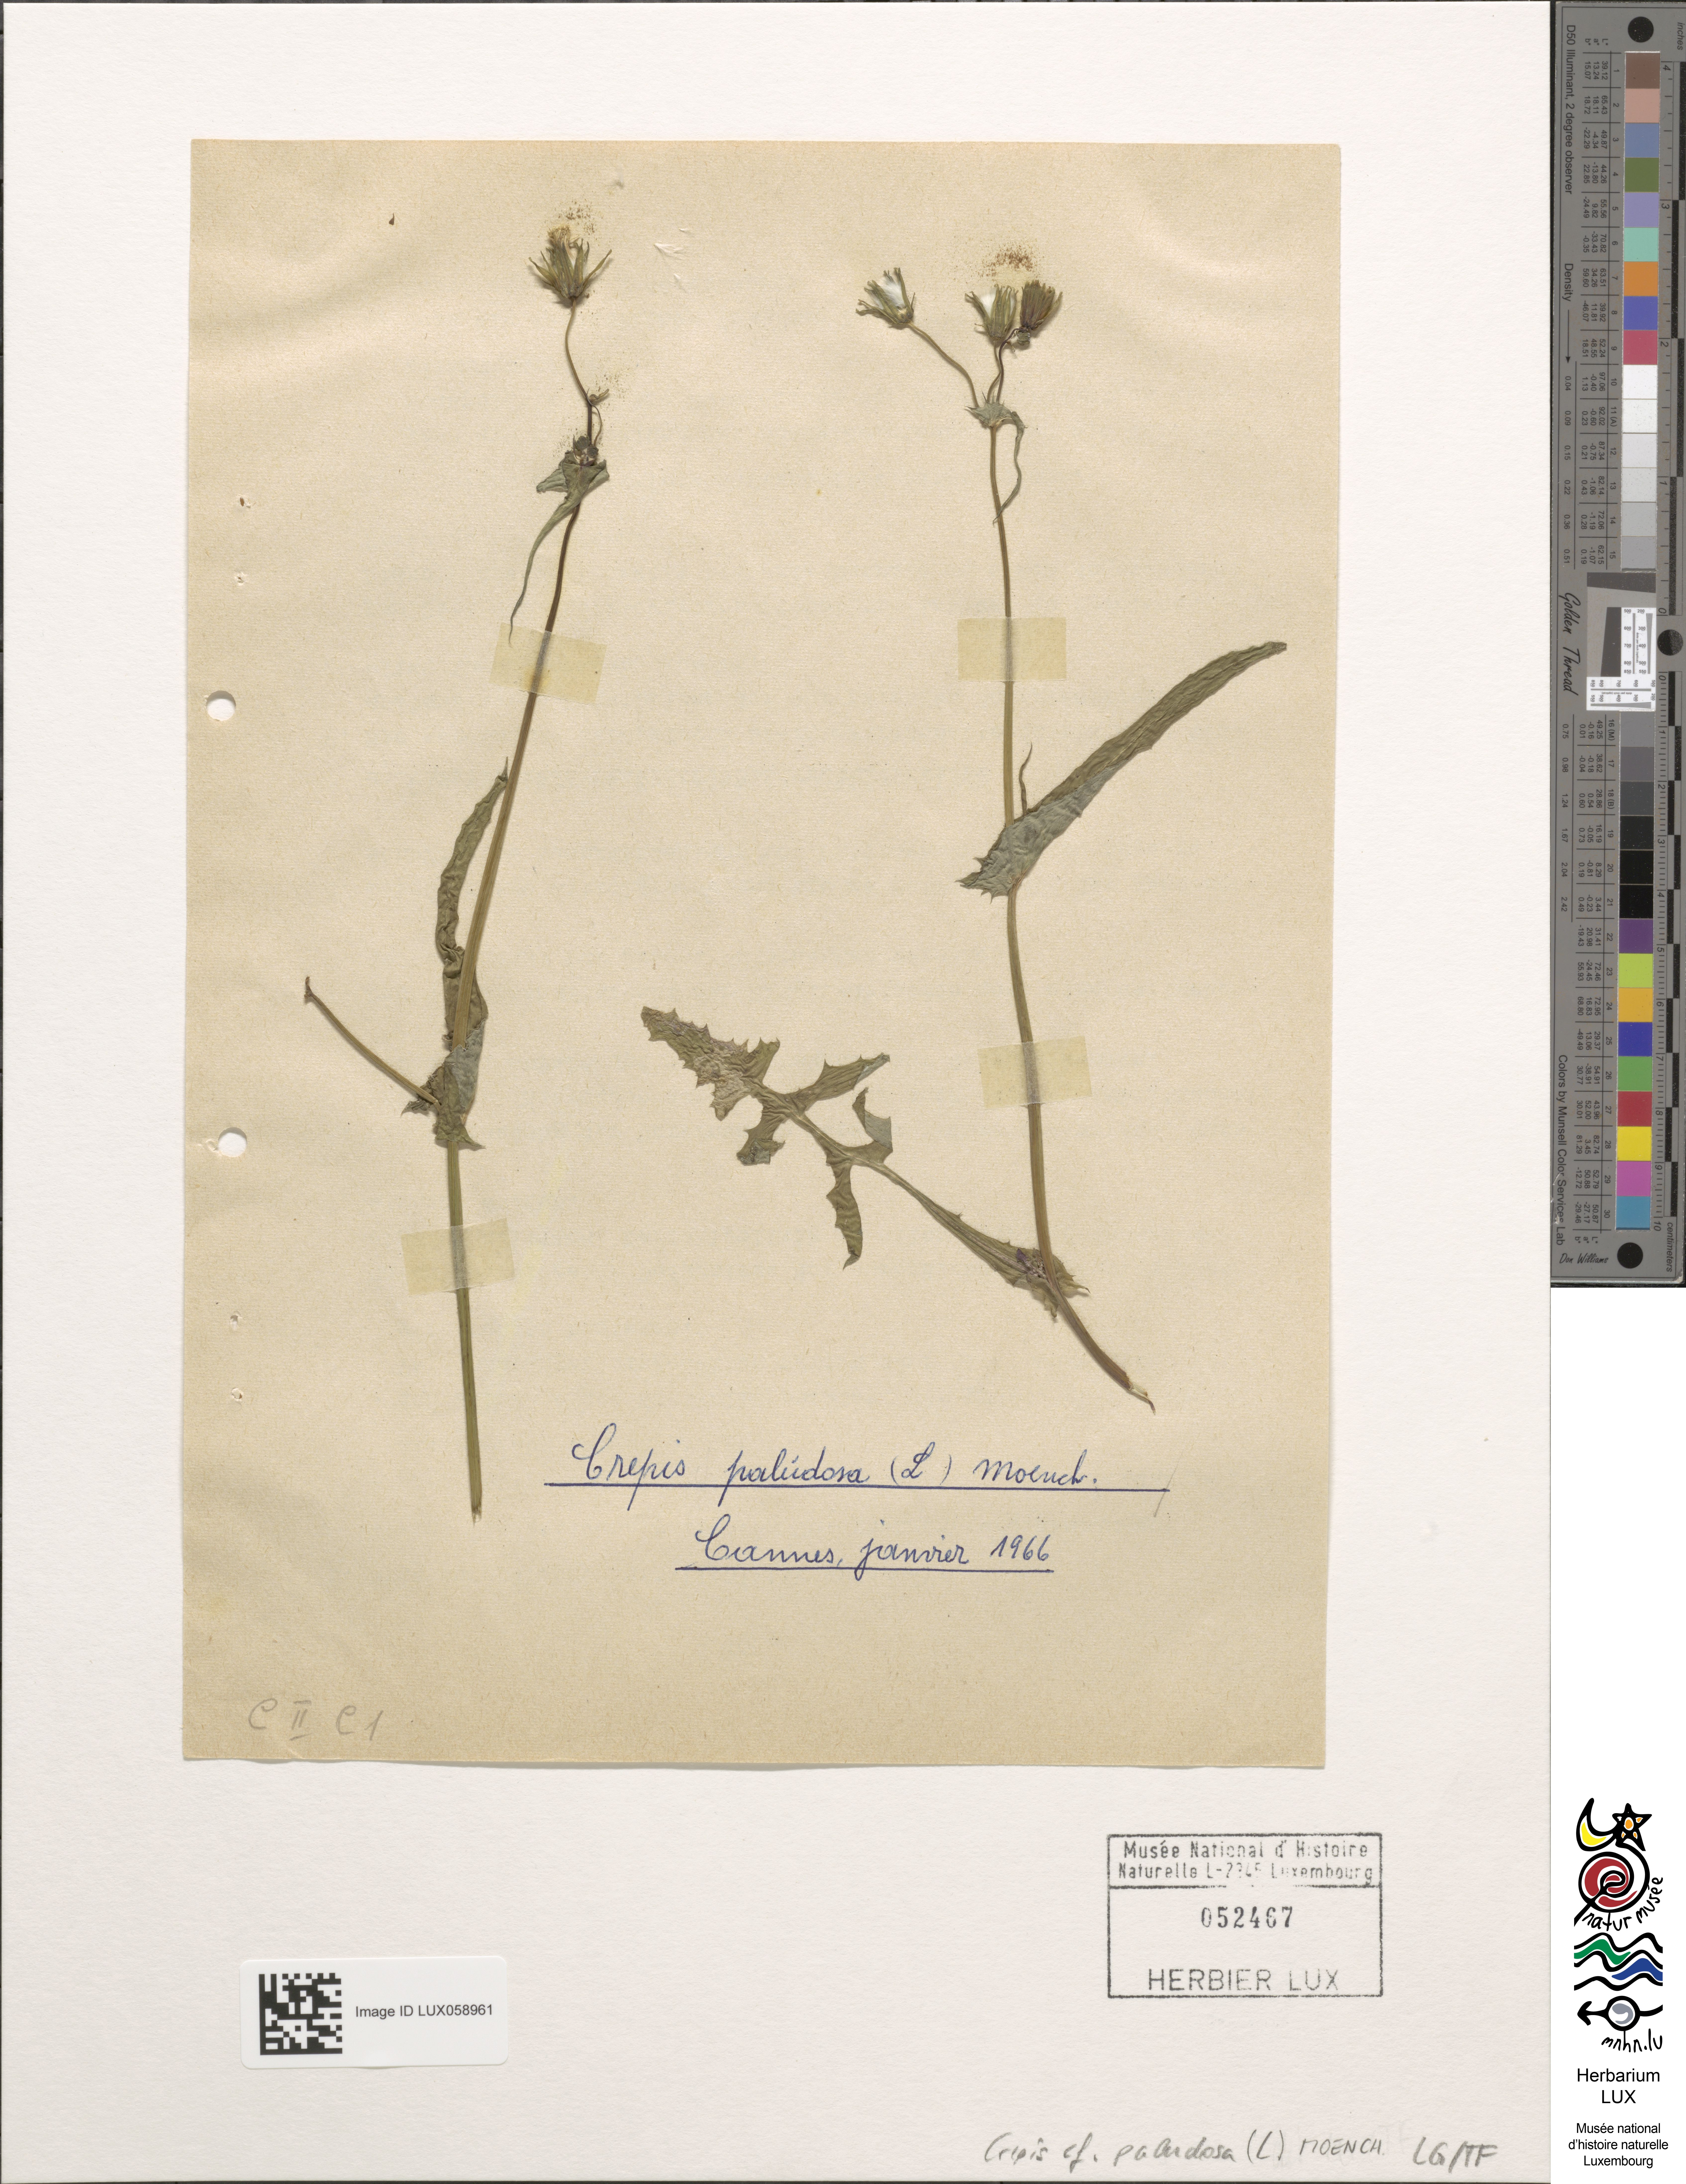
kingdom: Plantae
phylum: Tracheophyta
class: Magnoliopsida
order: Asterales
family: Asteraceae
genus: Crepis
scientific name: Crepis paludosa
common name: Marsh hawk's-beard
